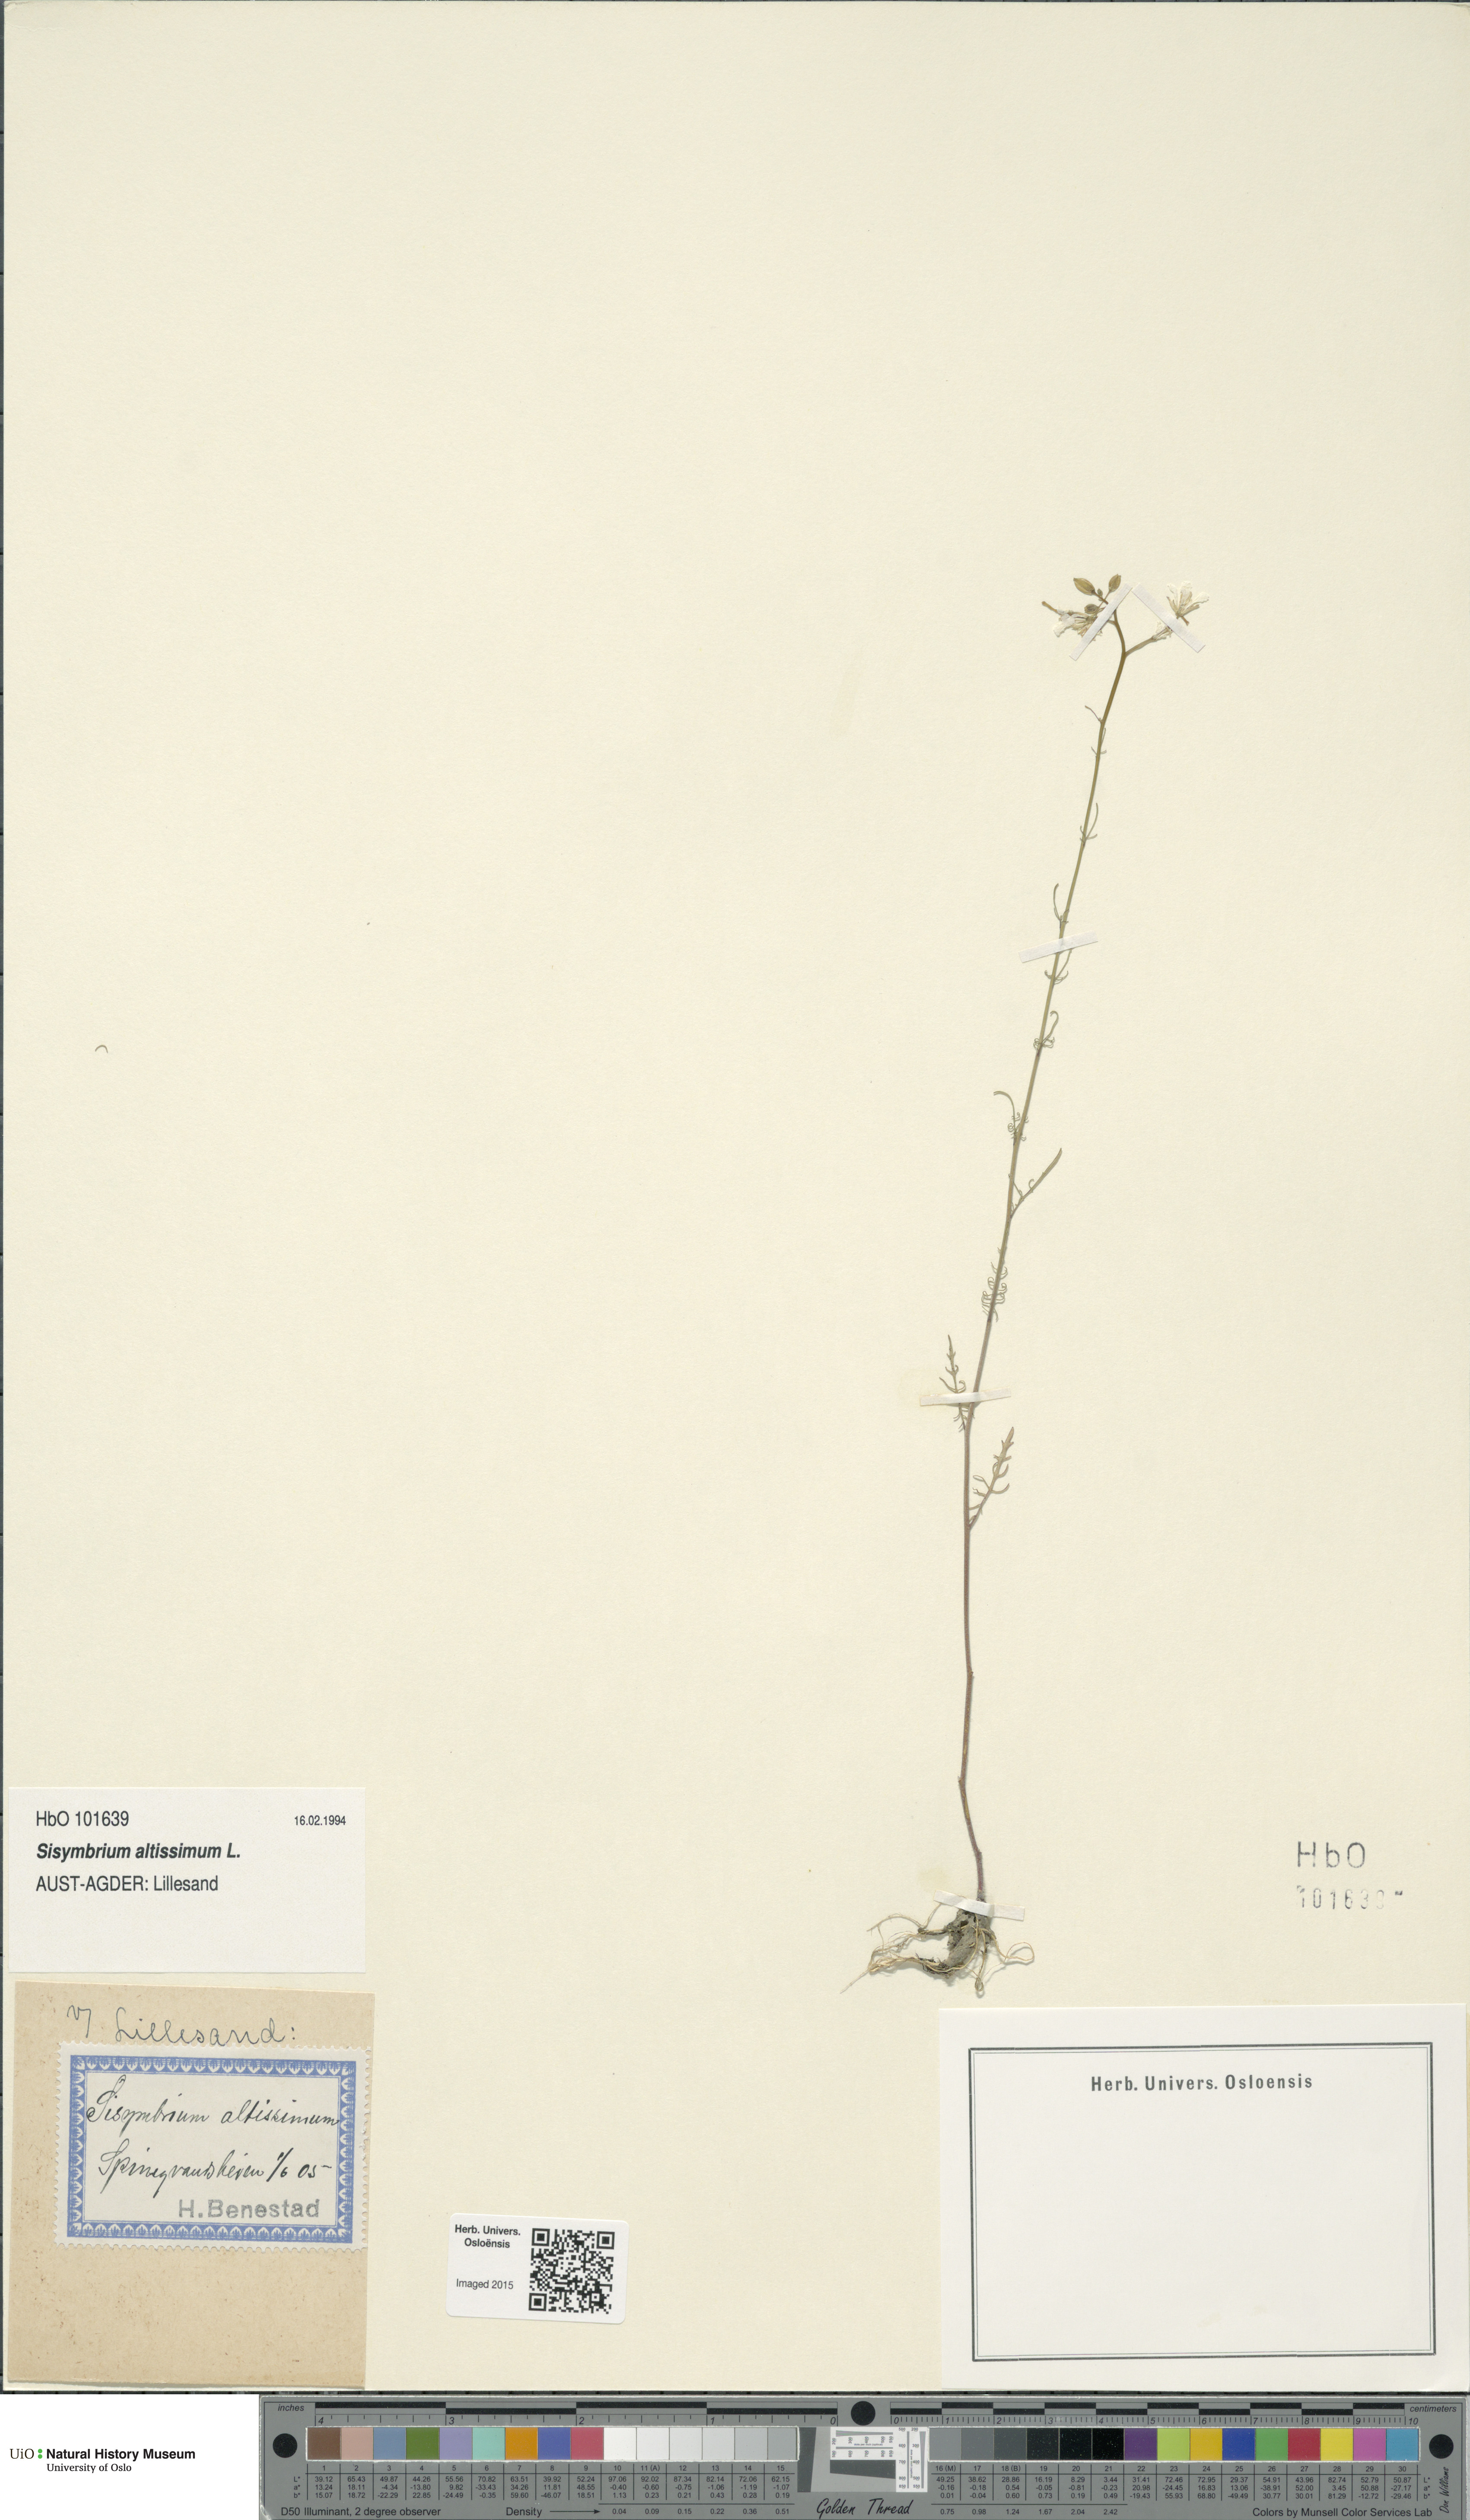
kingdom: Plantae
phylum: Tracheophyta
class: Magnoliopsida
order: Brassicales
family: Brassicaceae
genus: Sisymbrium
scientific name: Sisymbrium altissimum
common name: Tall rocket
